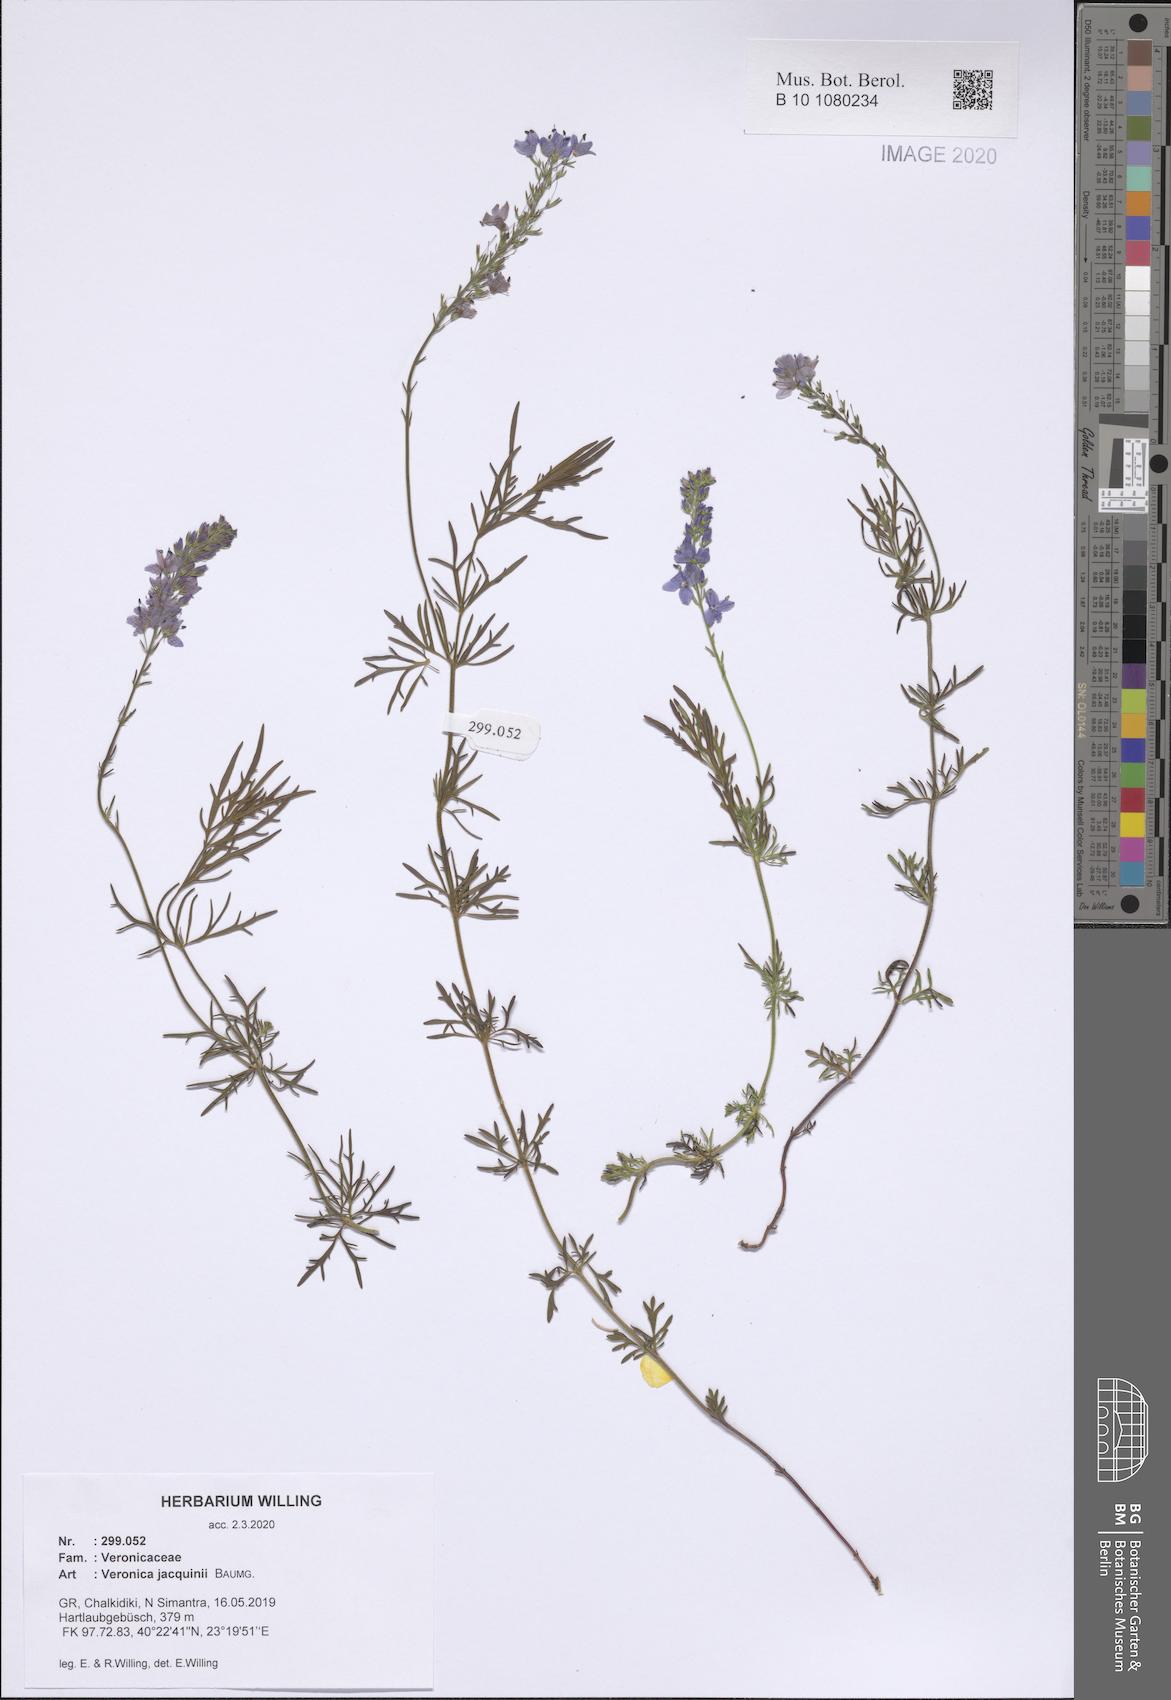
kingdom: Plantae
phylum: Tracheophyta
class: Magnoliopsida
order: Lamiales
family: Plantaginaceae
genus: Veronica
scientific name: Veronica austriaca
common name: Large speedwell
